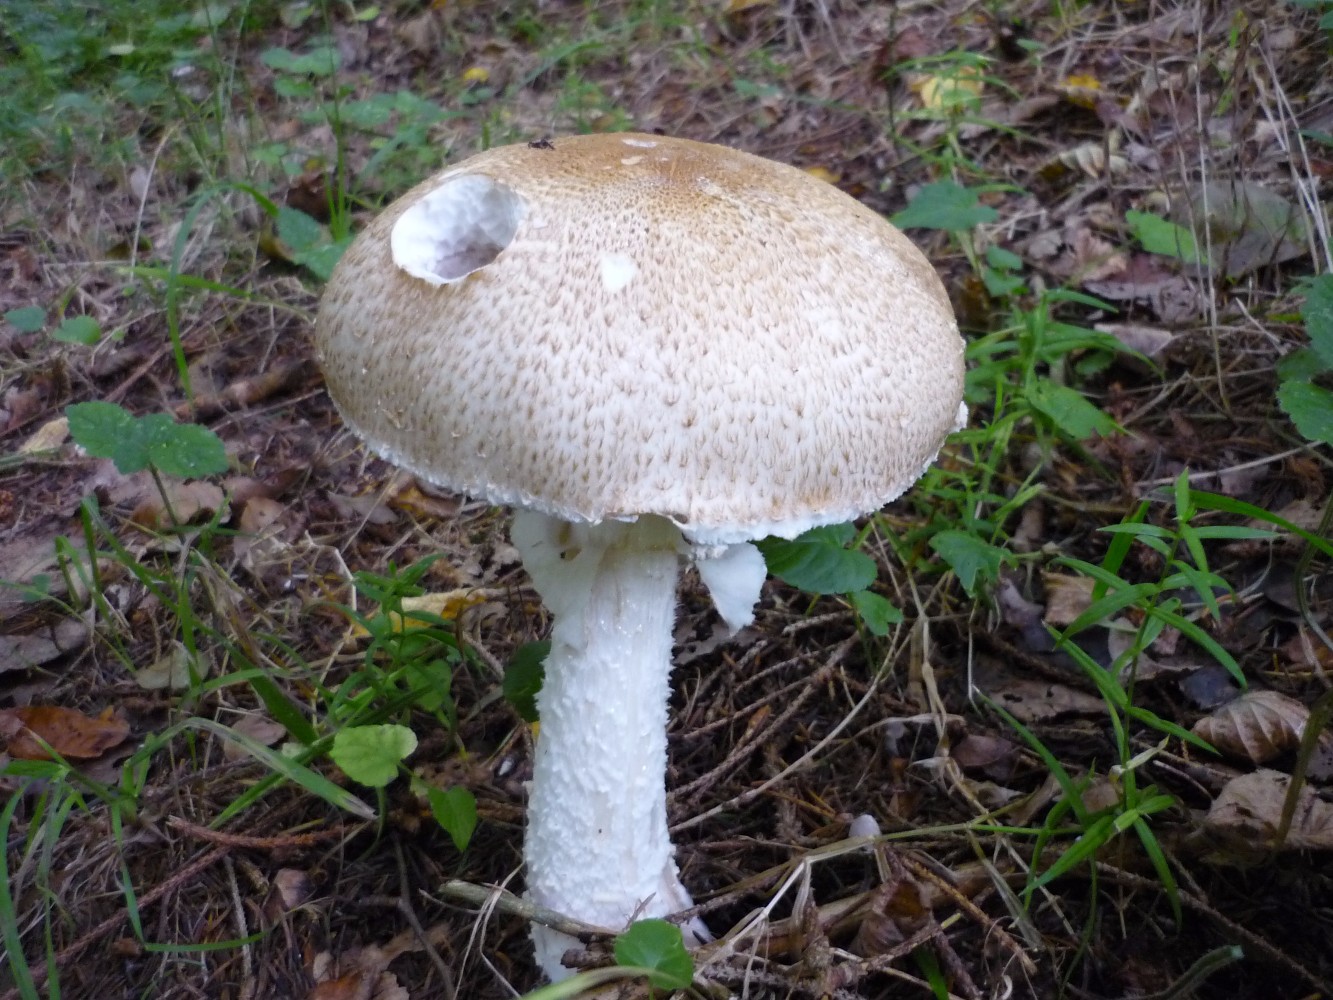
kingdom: Fungi
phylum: Basidiomycota
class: Agaricomycetes
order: Agaricales
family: Agaricaceae
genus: Agaricus
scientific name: Agaricus augustus
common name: prægtig champignon
